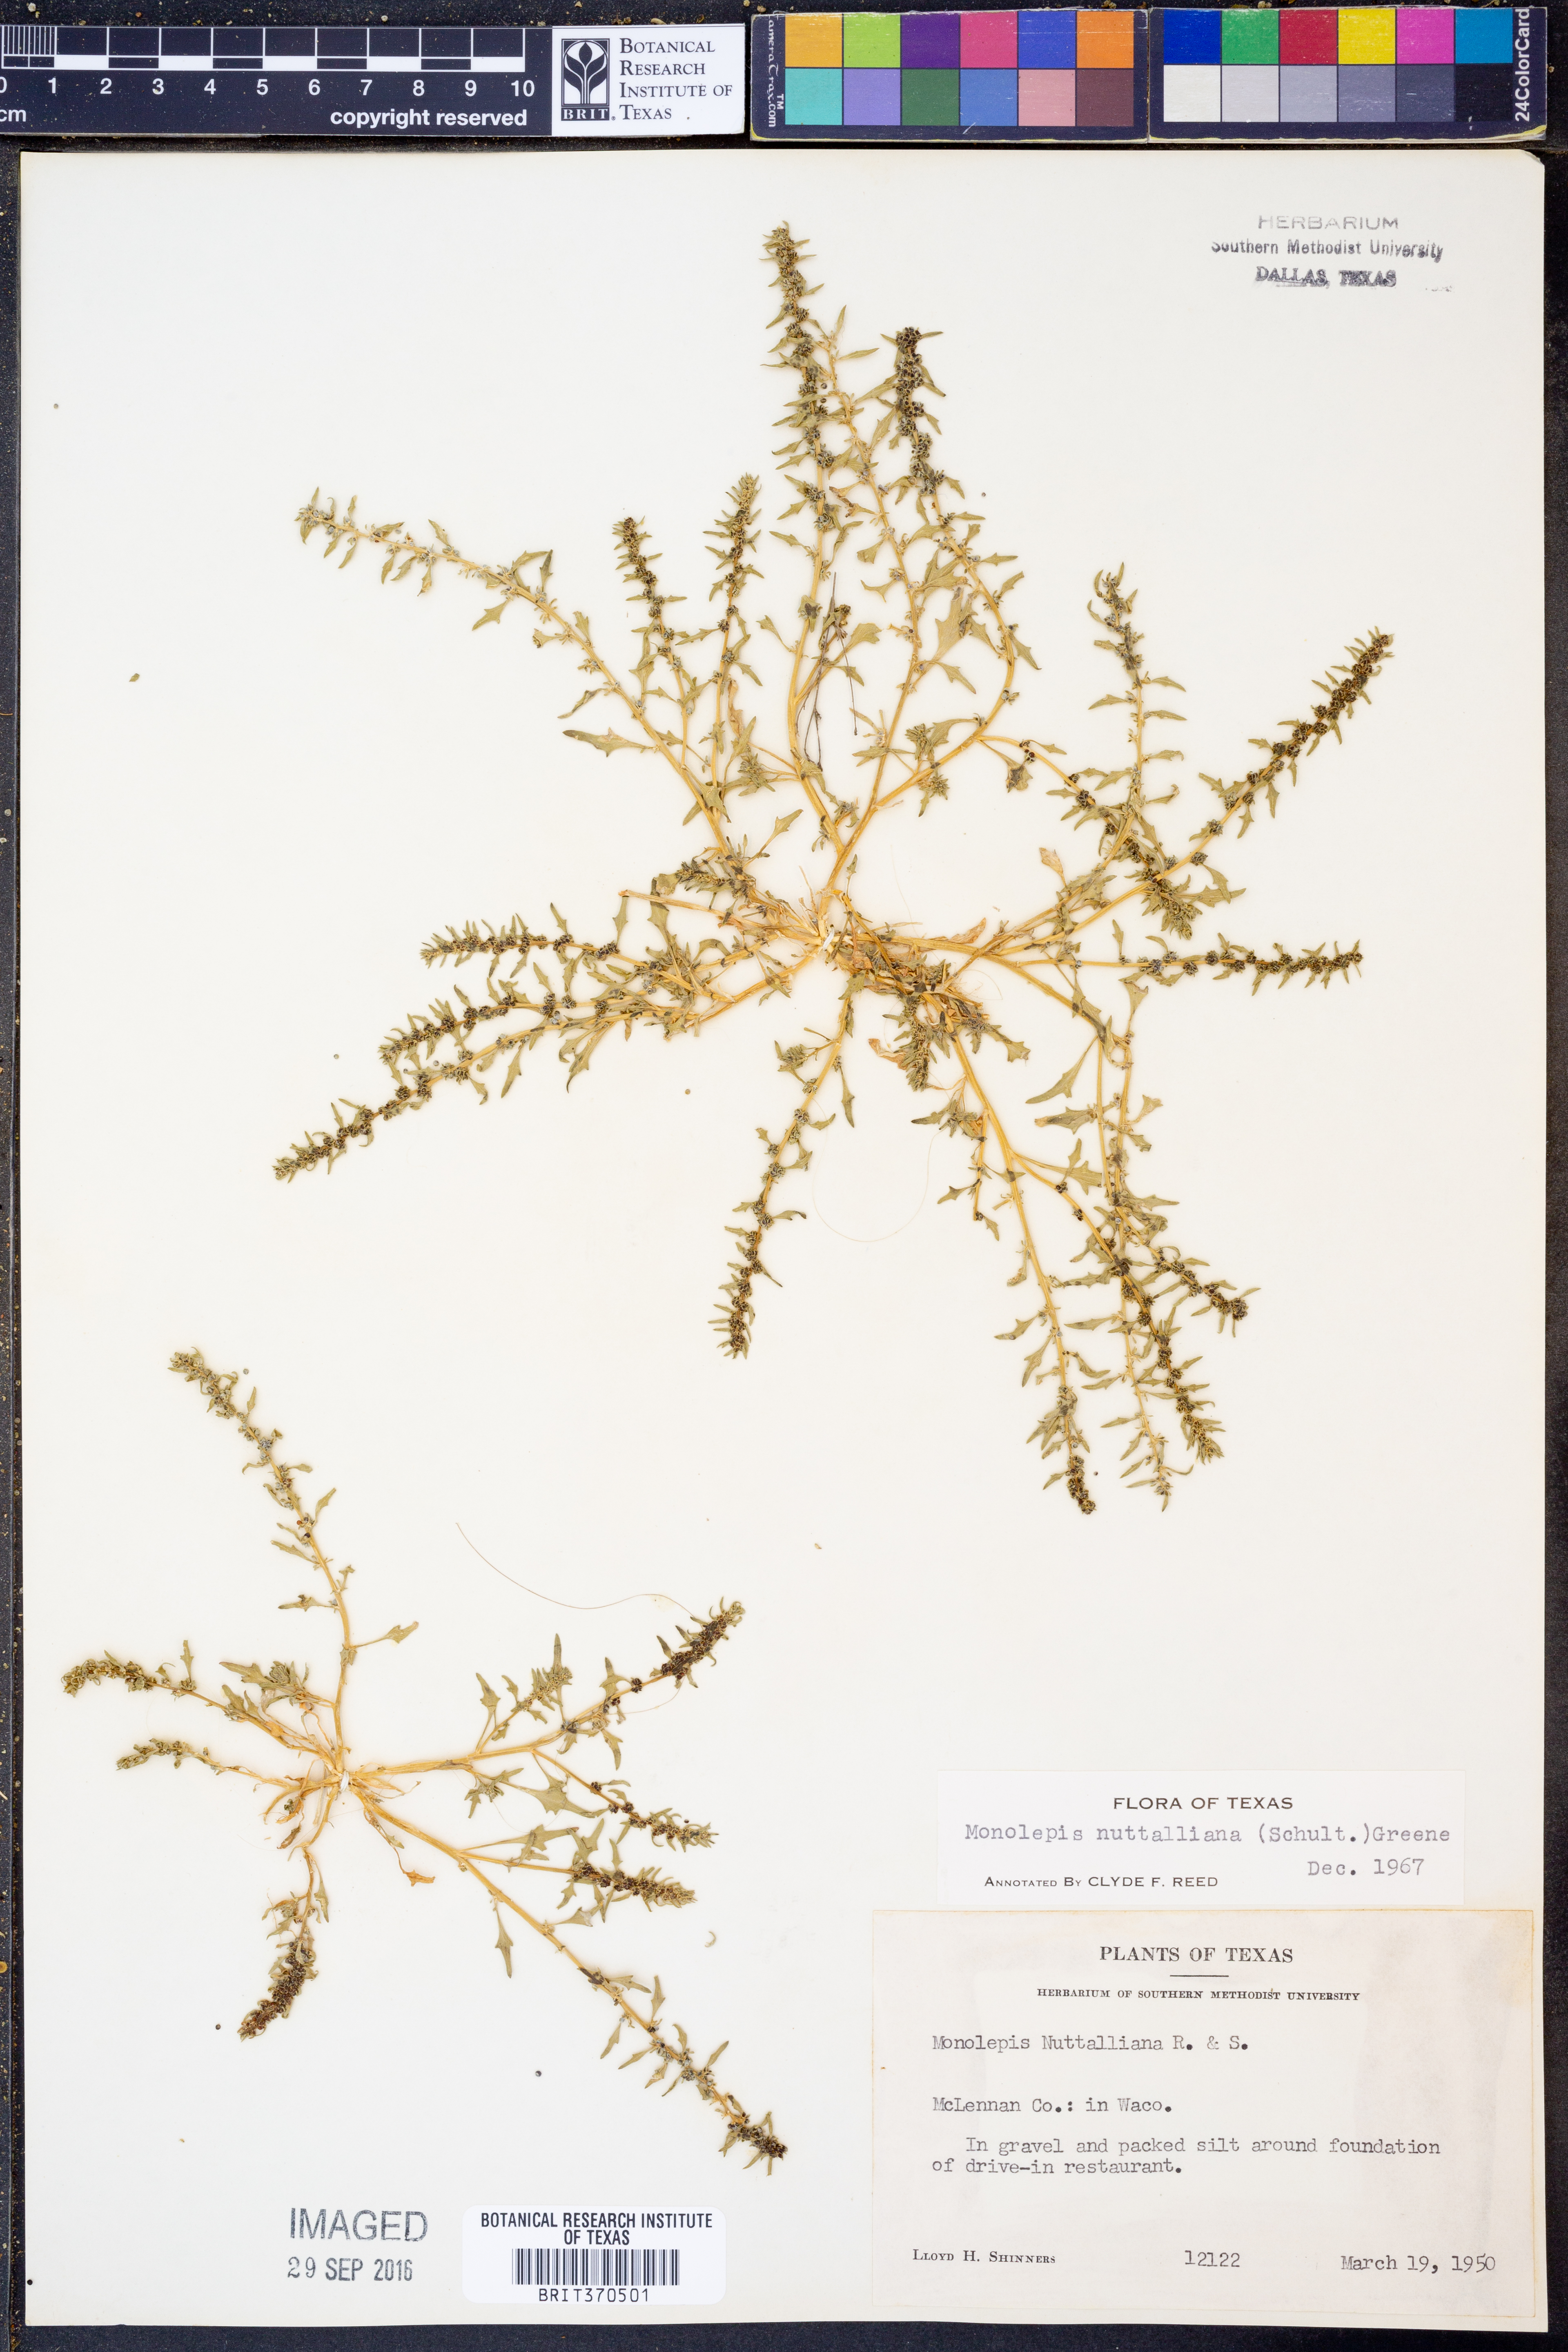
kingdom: Plantae
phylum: Tracheophyta
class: Magnoliopsida
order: Caryophyllales
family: Amaranthaceae
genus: Blitum
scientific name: Blitum nuttallianum
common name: Poverty-weed
